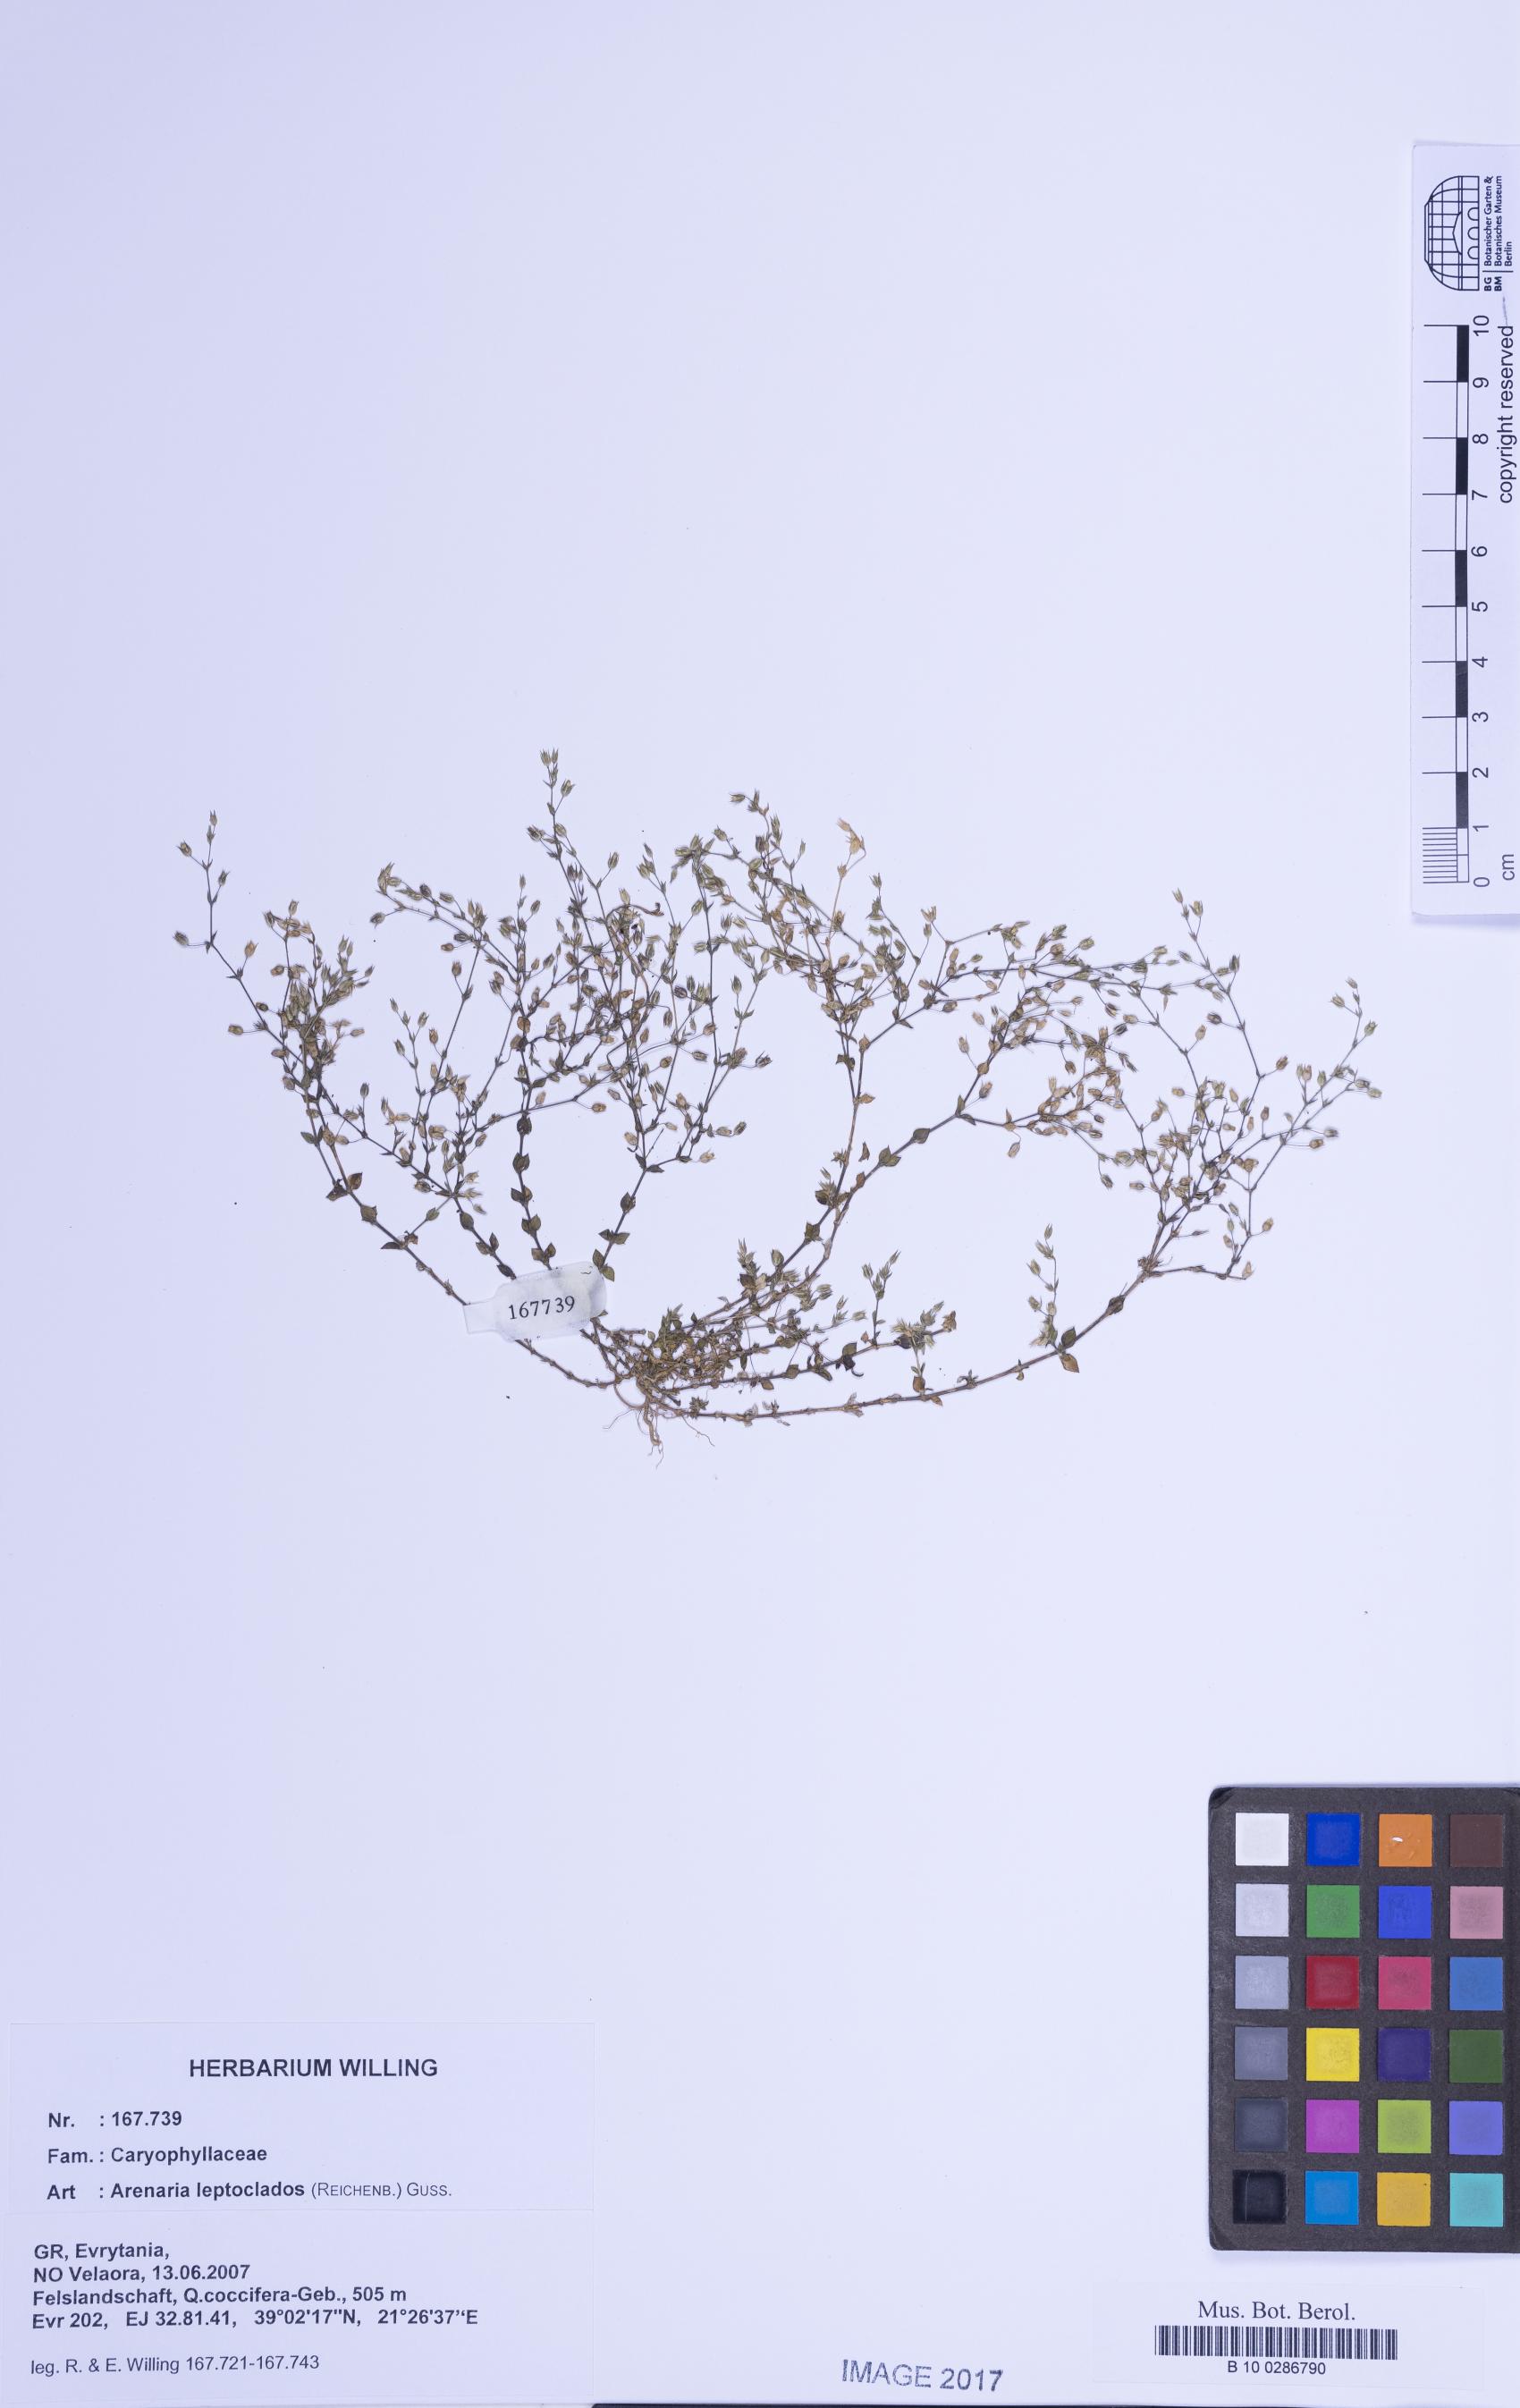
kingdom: Plantae
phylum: Tracheophyta
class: Magnoliopsida
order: Caryophyllales
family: Caryophyllaceae
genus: Arenaria
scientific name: Arenaria leptoclados
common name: Thyme-leaved sandwort
